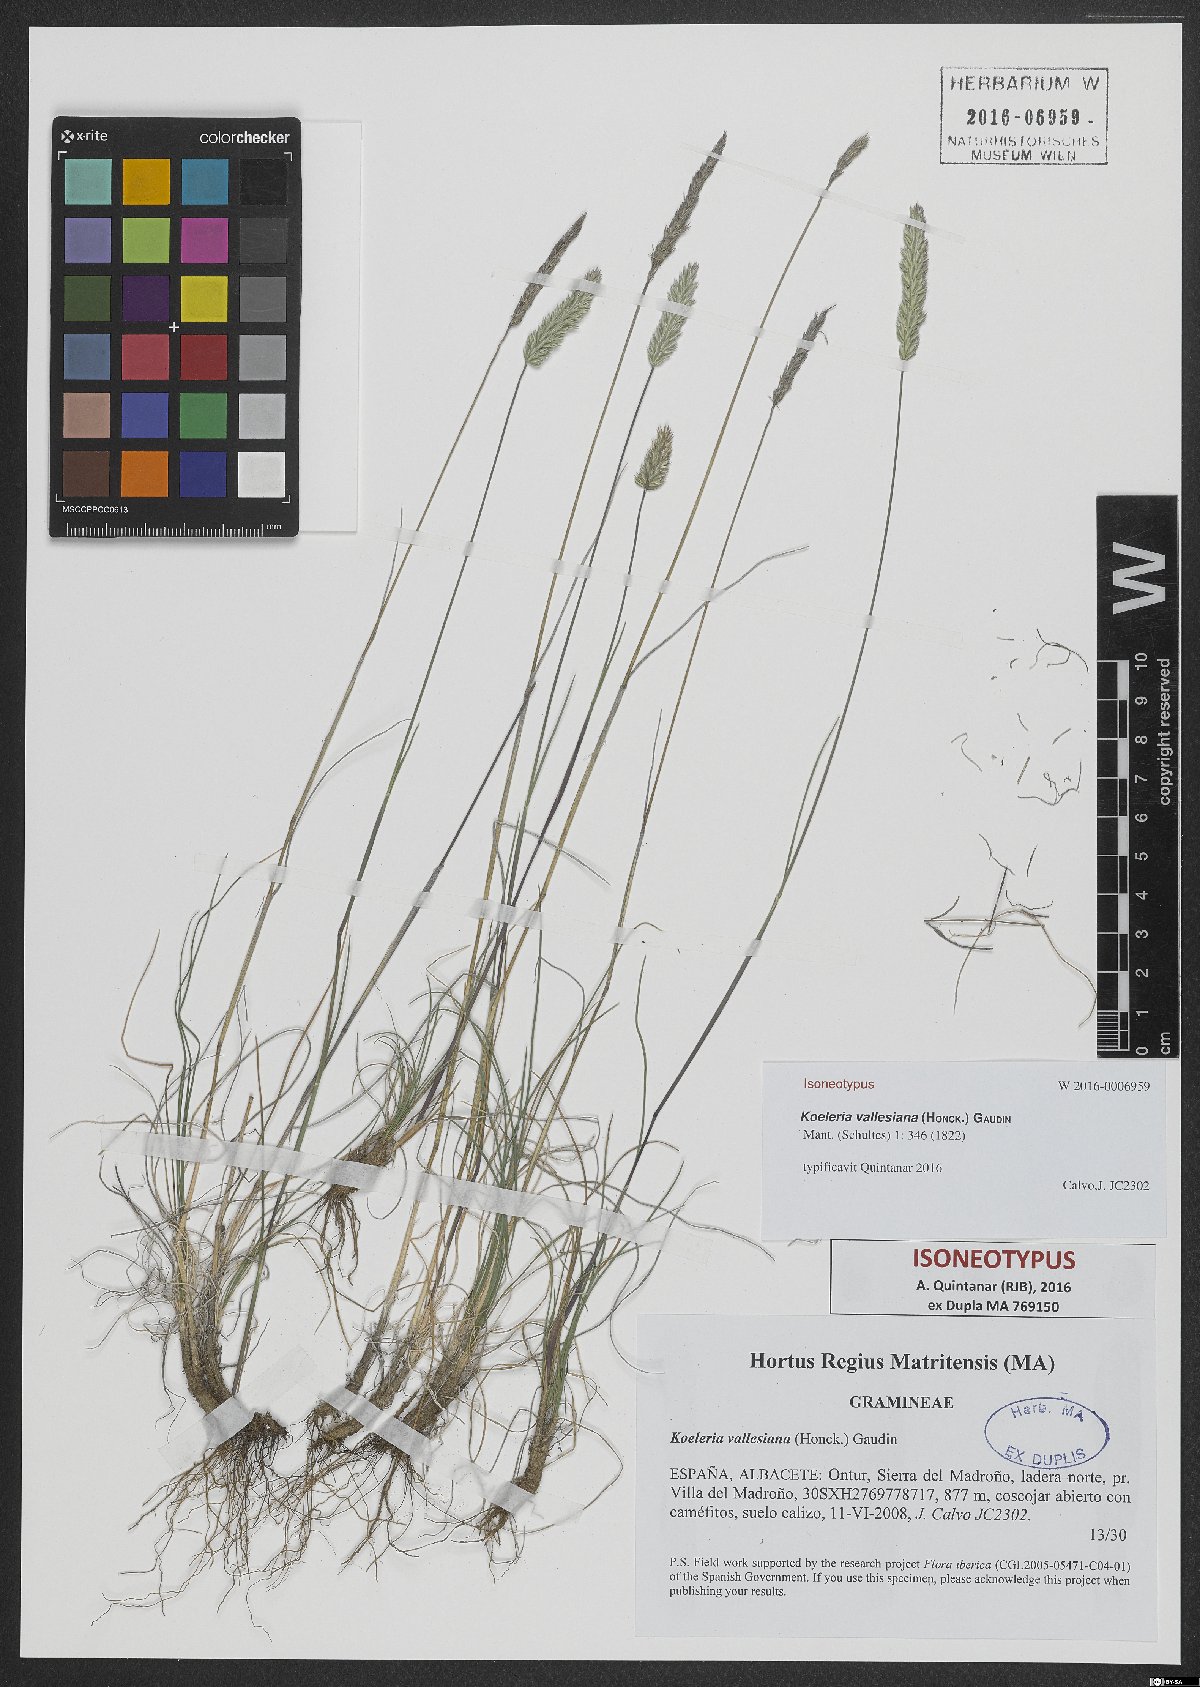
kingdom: Plantae
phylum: Tracheophyta
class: Liliopsida
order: Poales
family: Poaceae
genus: Koeleria
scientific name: Koeleria vallesiana
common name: Somerset hair-grass
